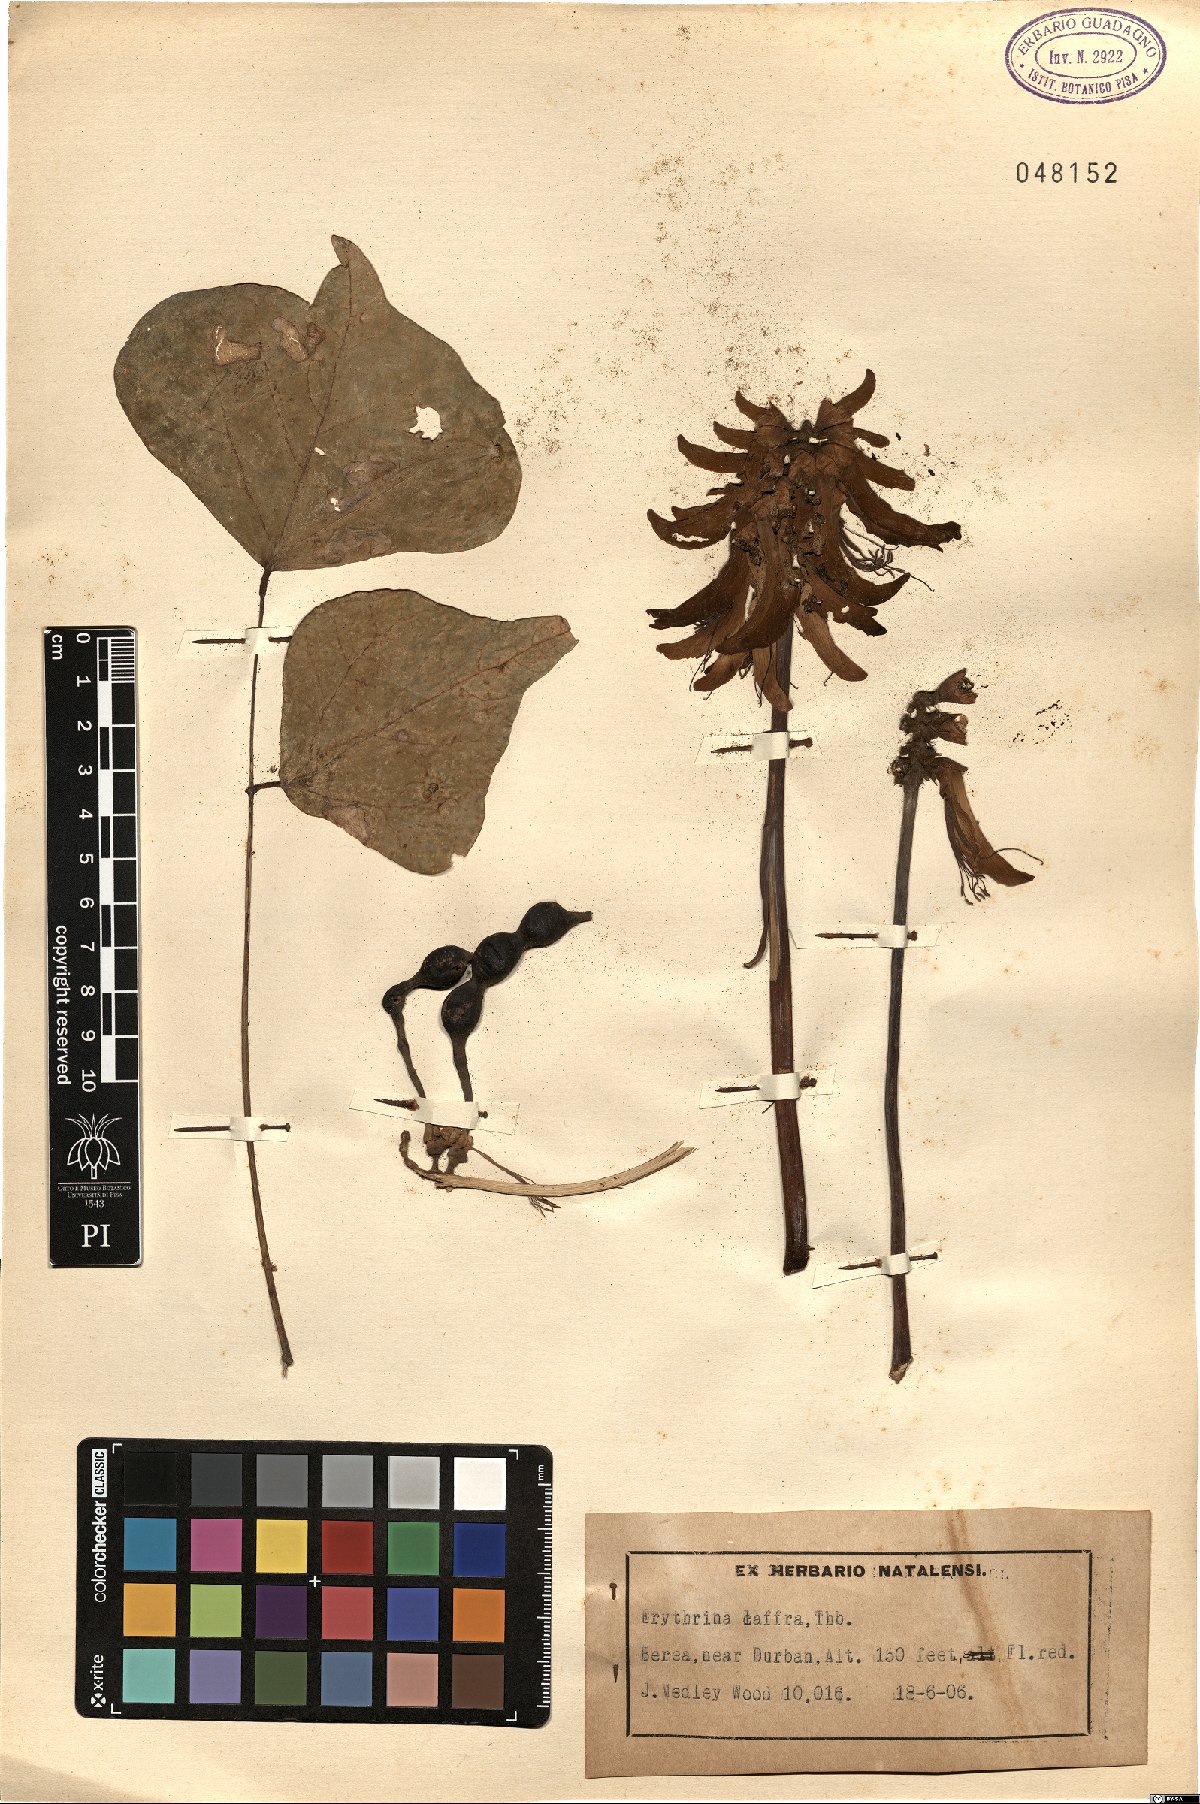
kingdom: Plantae
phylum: Tracheophyta
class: Magnoliopsida
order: Fabales
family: Fabaceae
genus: Erythrina
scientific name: Erythrina caffra
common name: Coast coral tree
